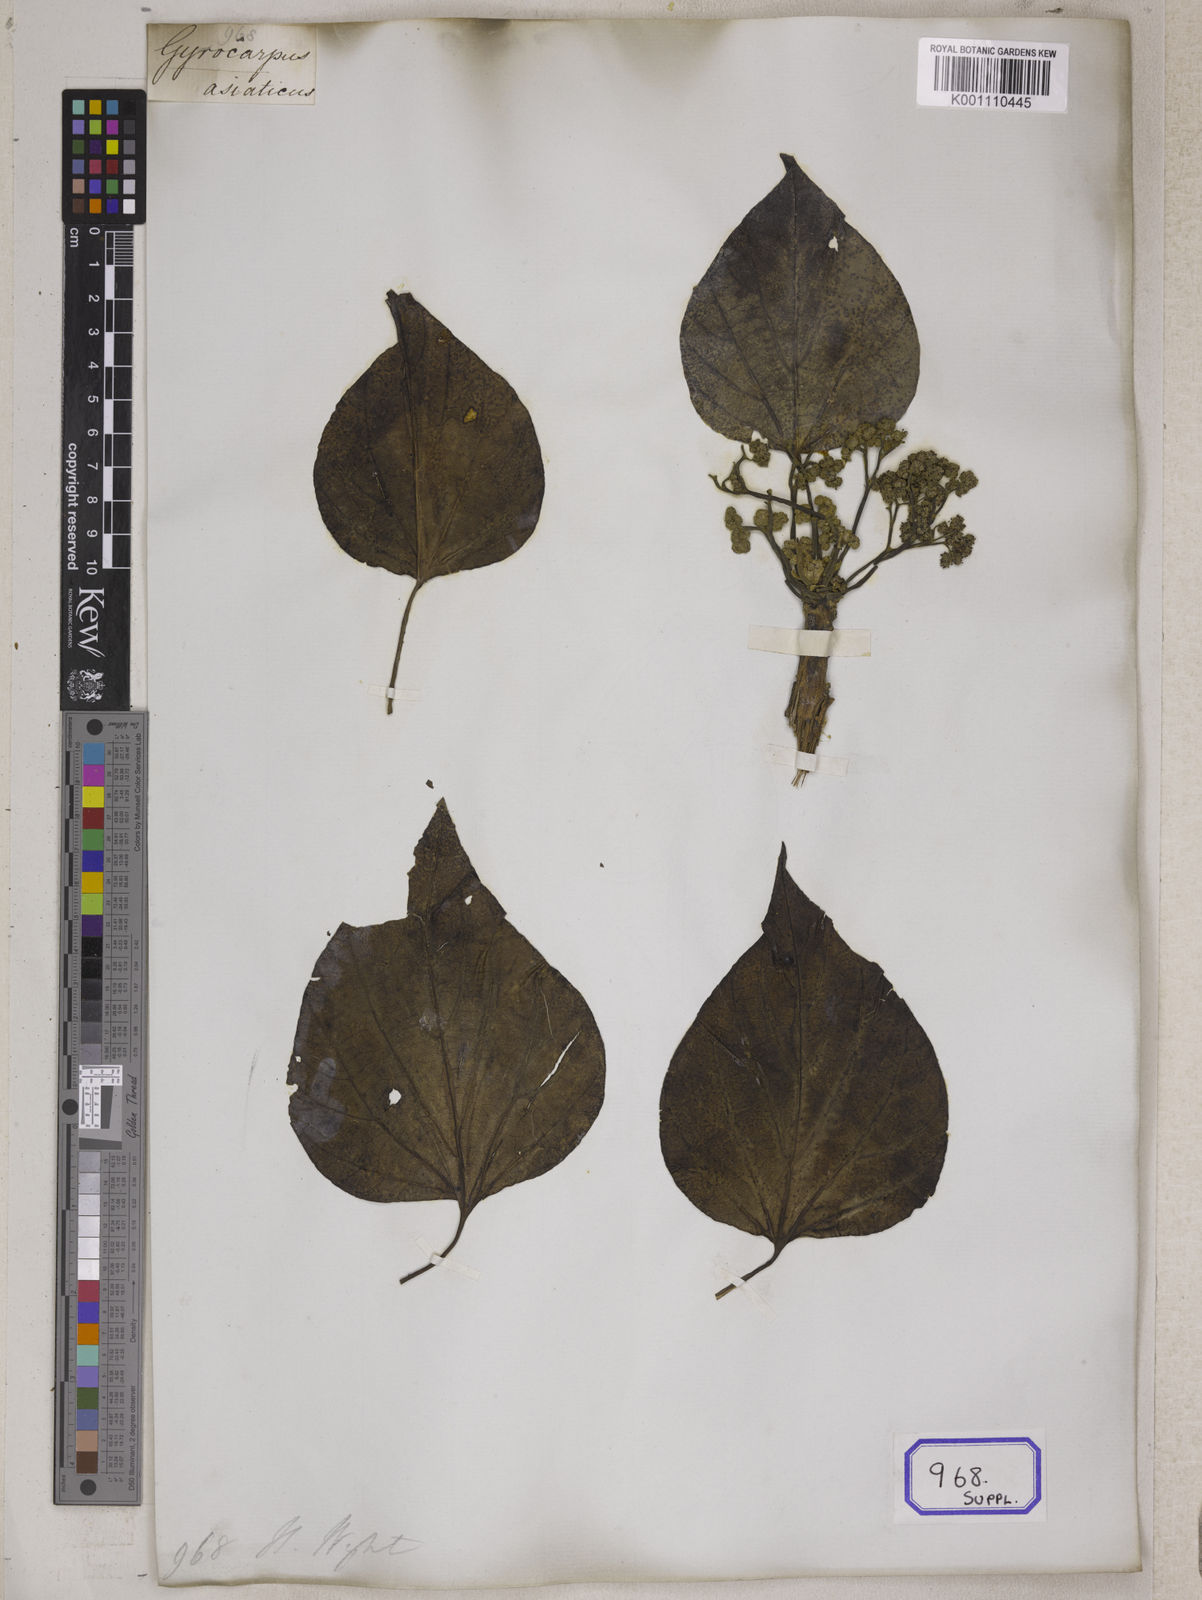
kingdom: Plantae
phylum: Tracheophyta
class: Magnoliopsida
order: Laurales
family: Hernandiaceae
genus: Gyrocarpus
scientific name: Gyrocarpus americanus
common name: Gyro damson
